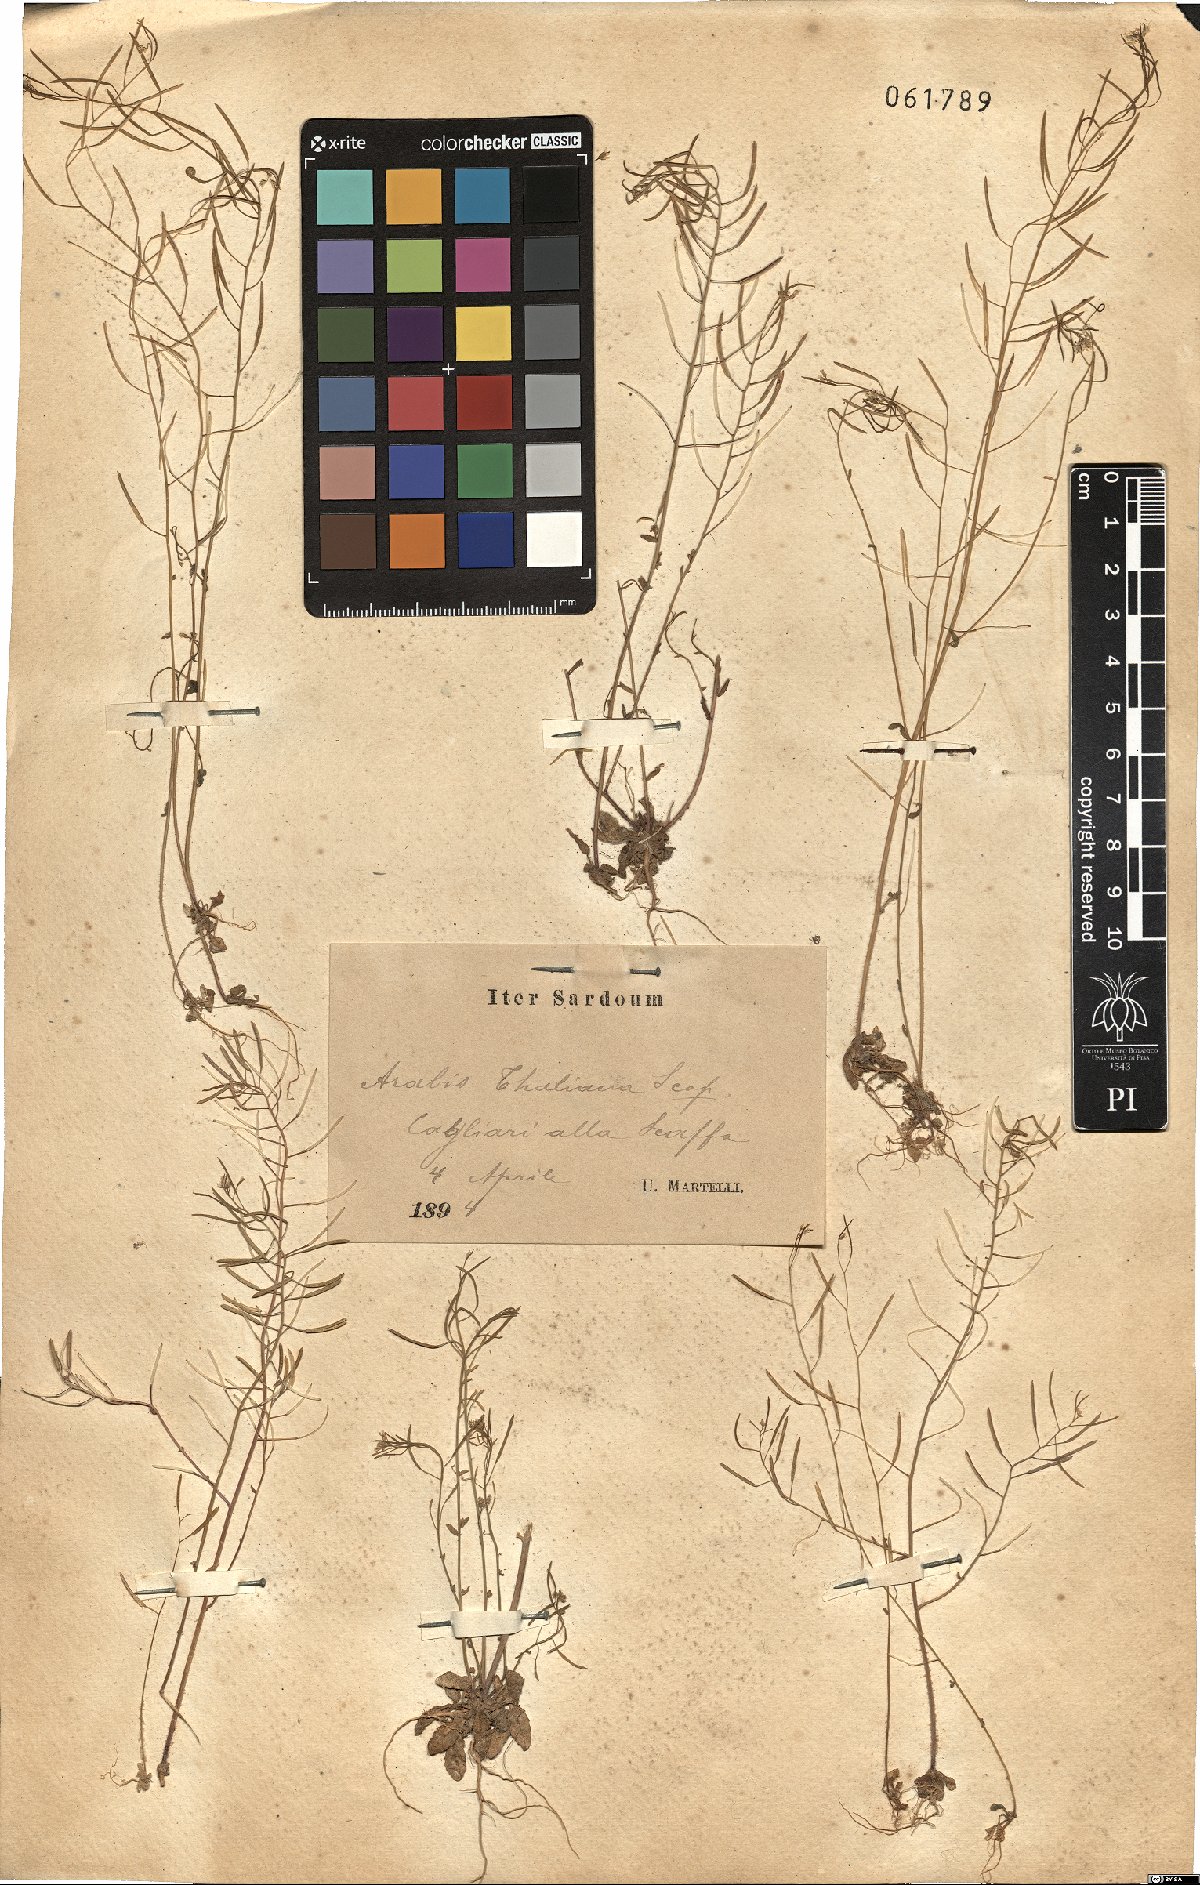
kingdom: Plantae
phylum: Tracheophyta
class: Magnoliopsida
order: Brassicales
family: Brassicaceae
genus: Arabidopsis
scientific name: Arabidopsis thaliana
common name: Thale cress
